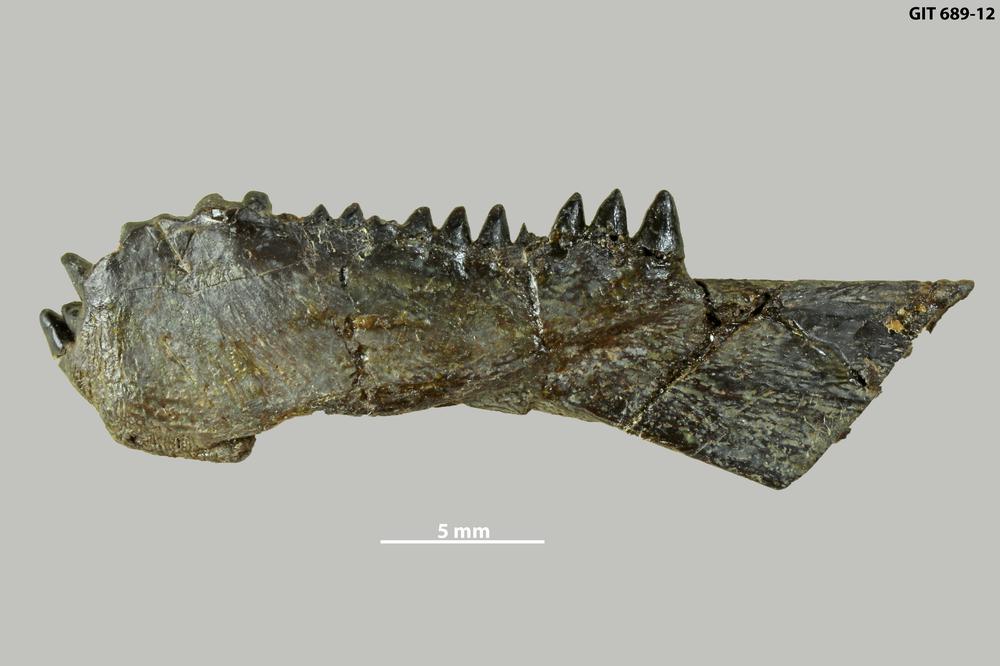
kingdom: Animalia
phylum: Chordata
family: Plourdosteidae
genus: Protitanichthys
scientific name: Protitanichthys
